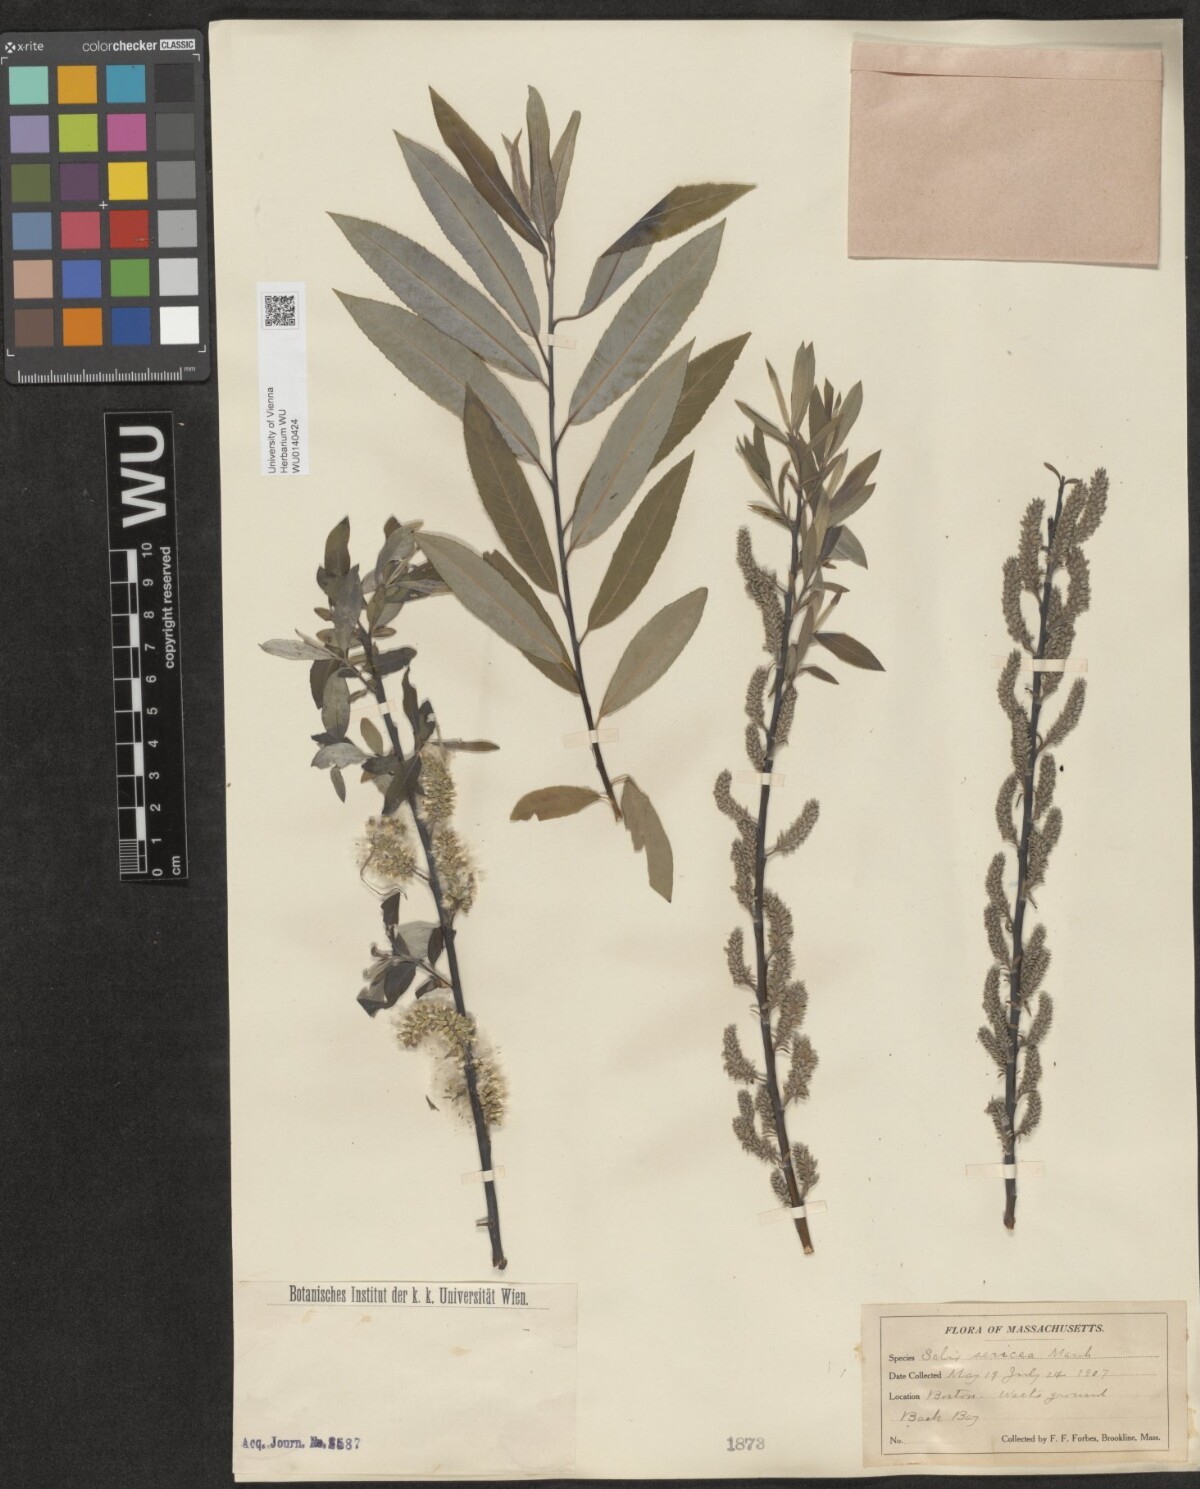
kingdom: Plantae
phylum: Tracheophyta
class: Magnoliopsida
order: Malpighiales
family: Salicaceae
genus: Salix
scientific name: Salix sericea
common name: Silky willow
